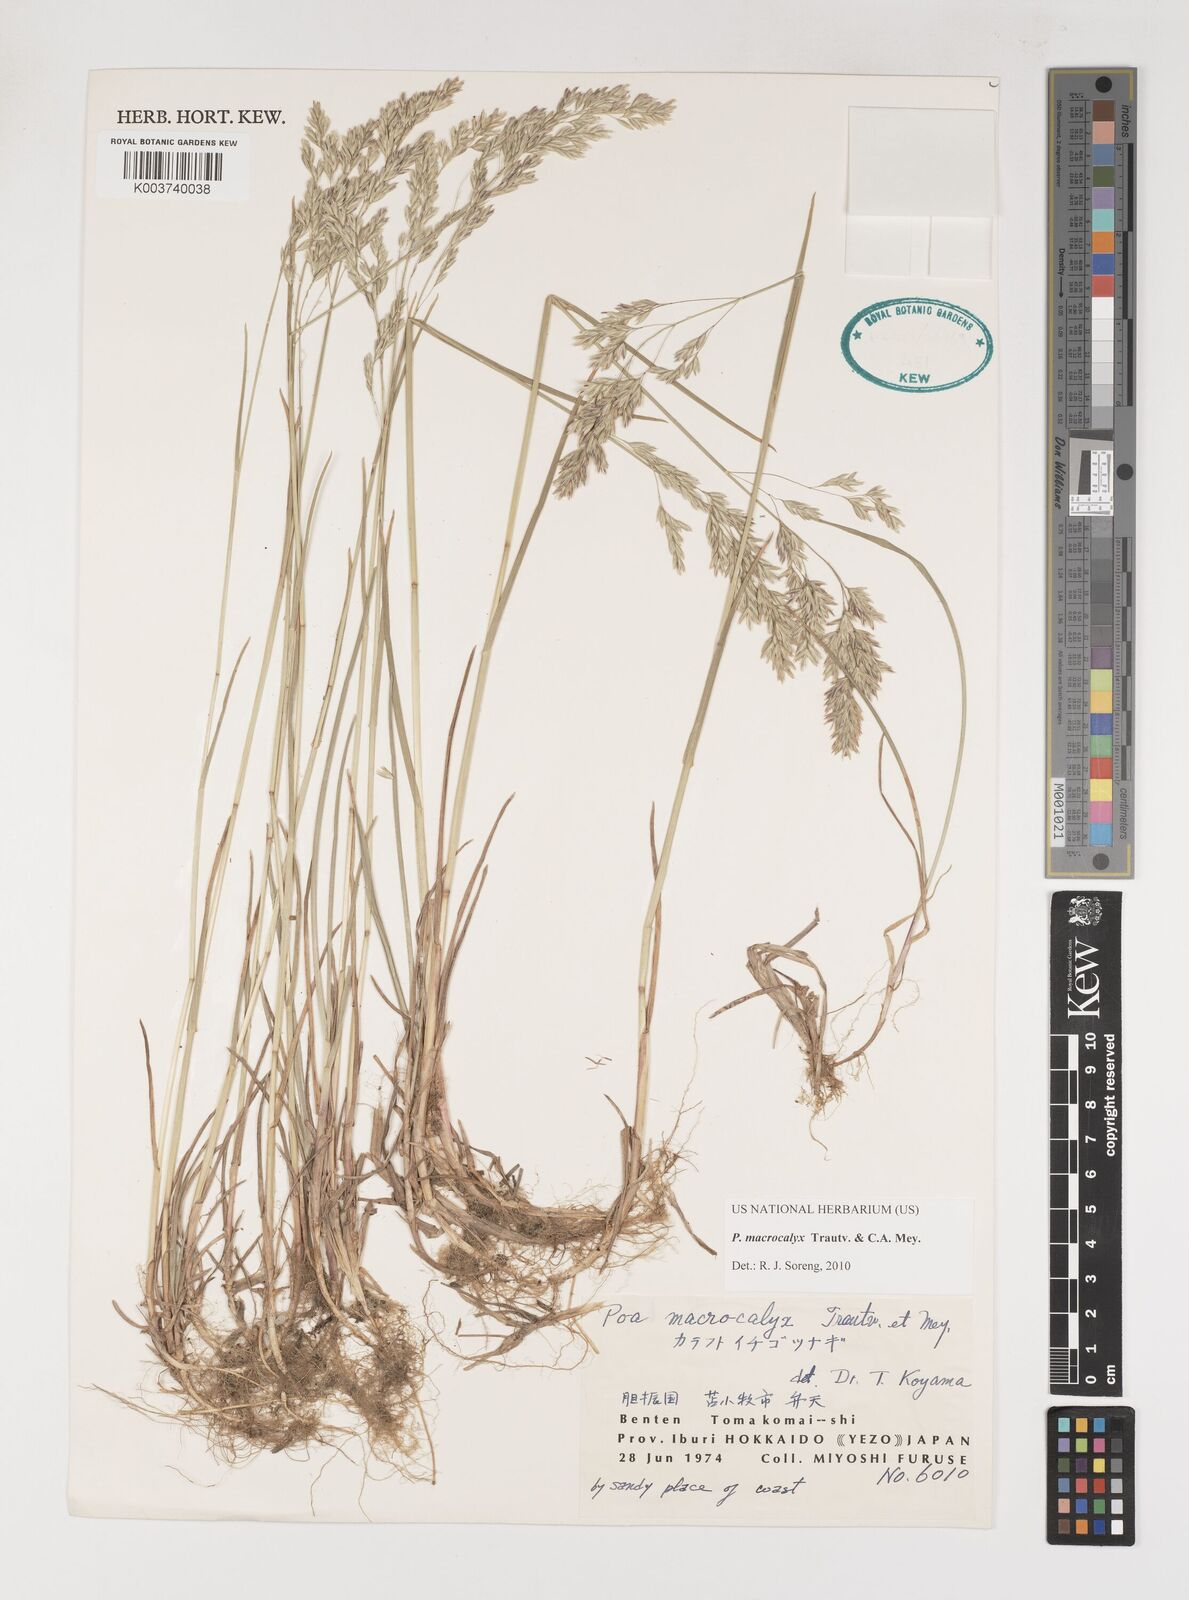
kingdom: Plantae
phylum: Tracheophyta
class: Liliopsida
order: Poales
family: Poaceae
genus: Poa
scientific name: Poa macrocalyx
